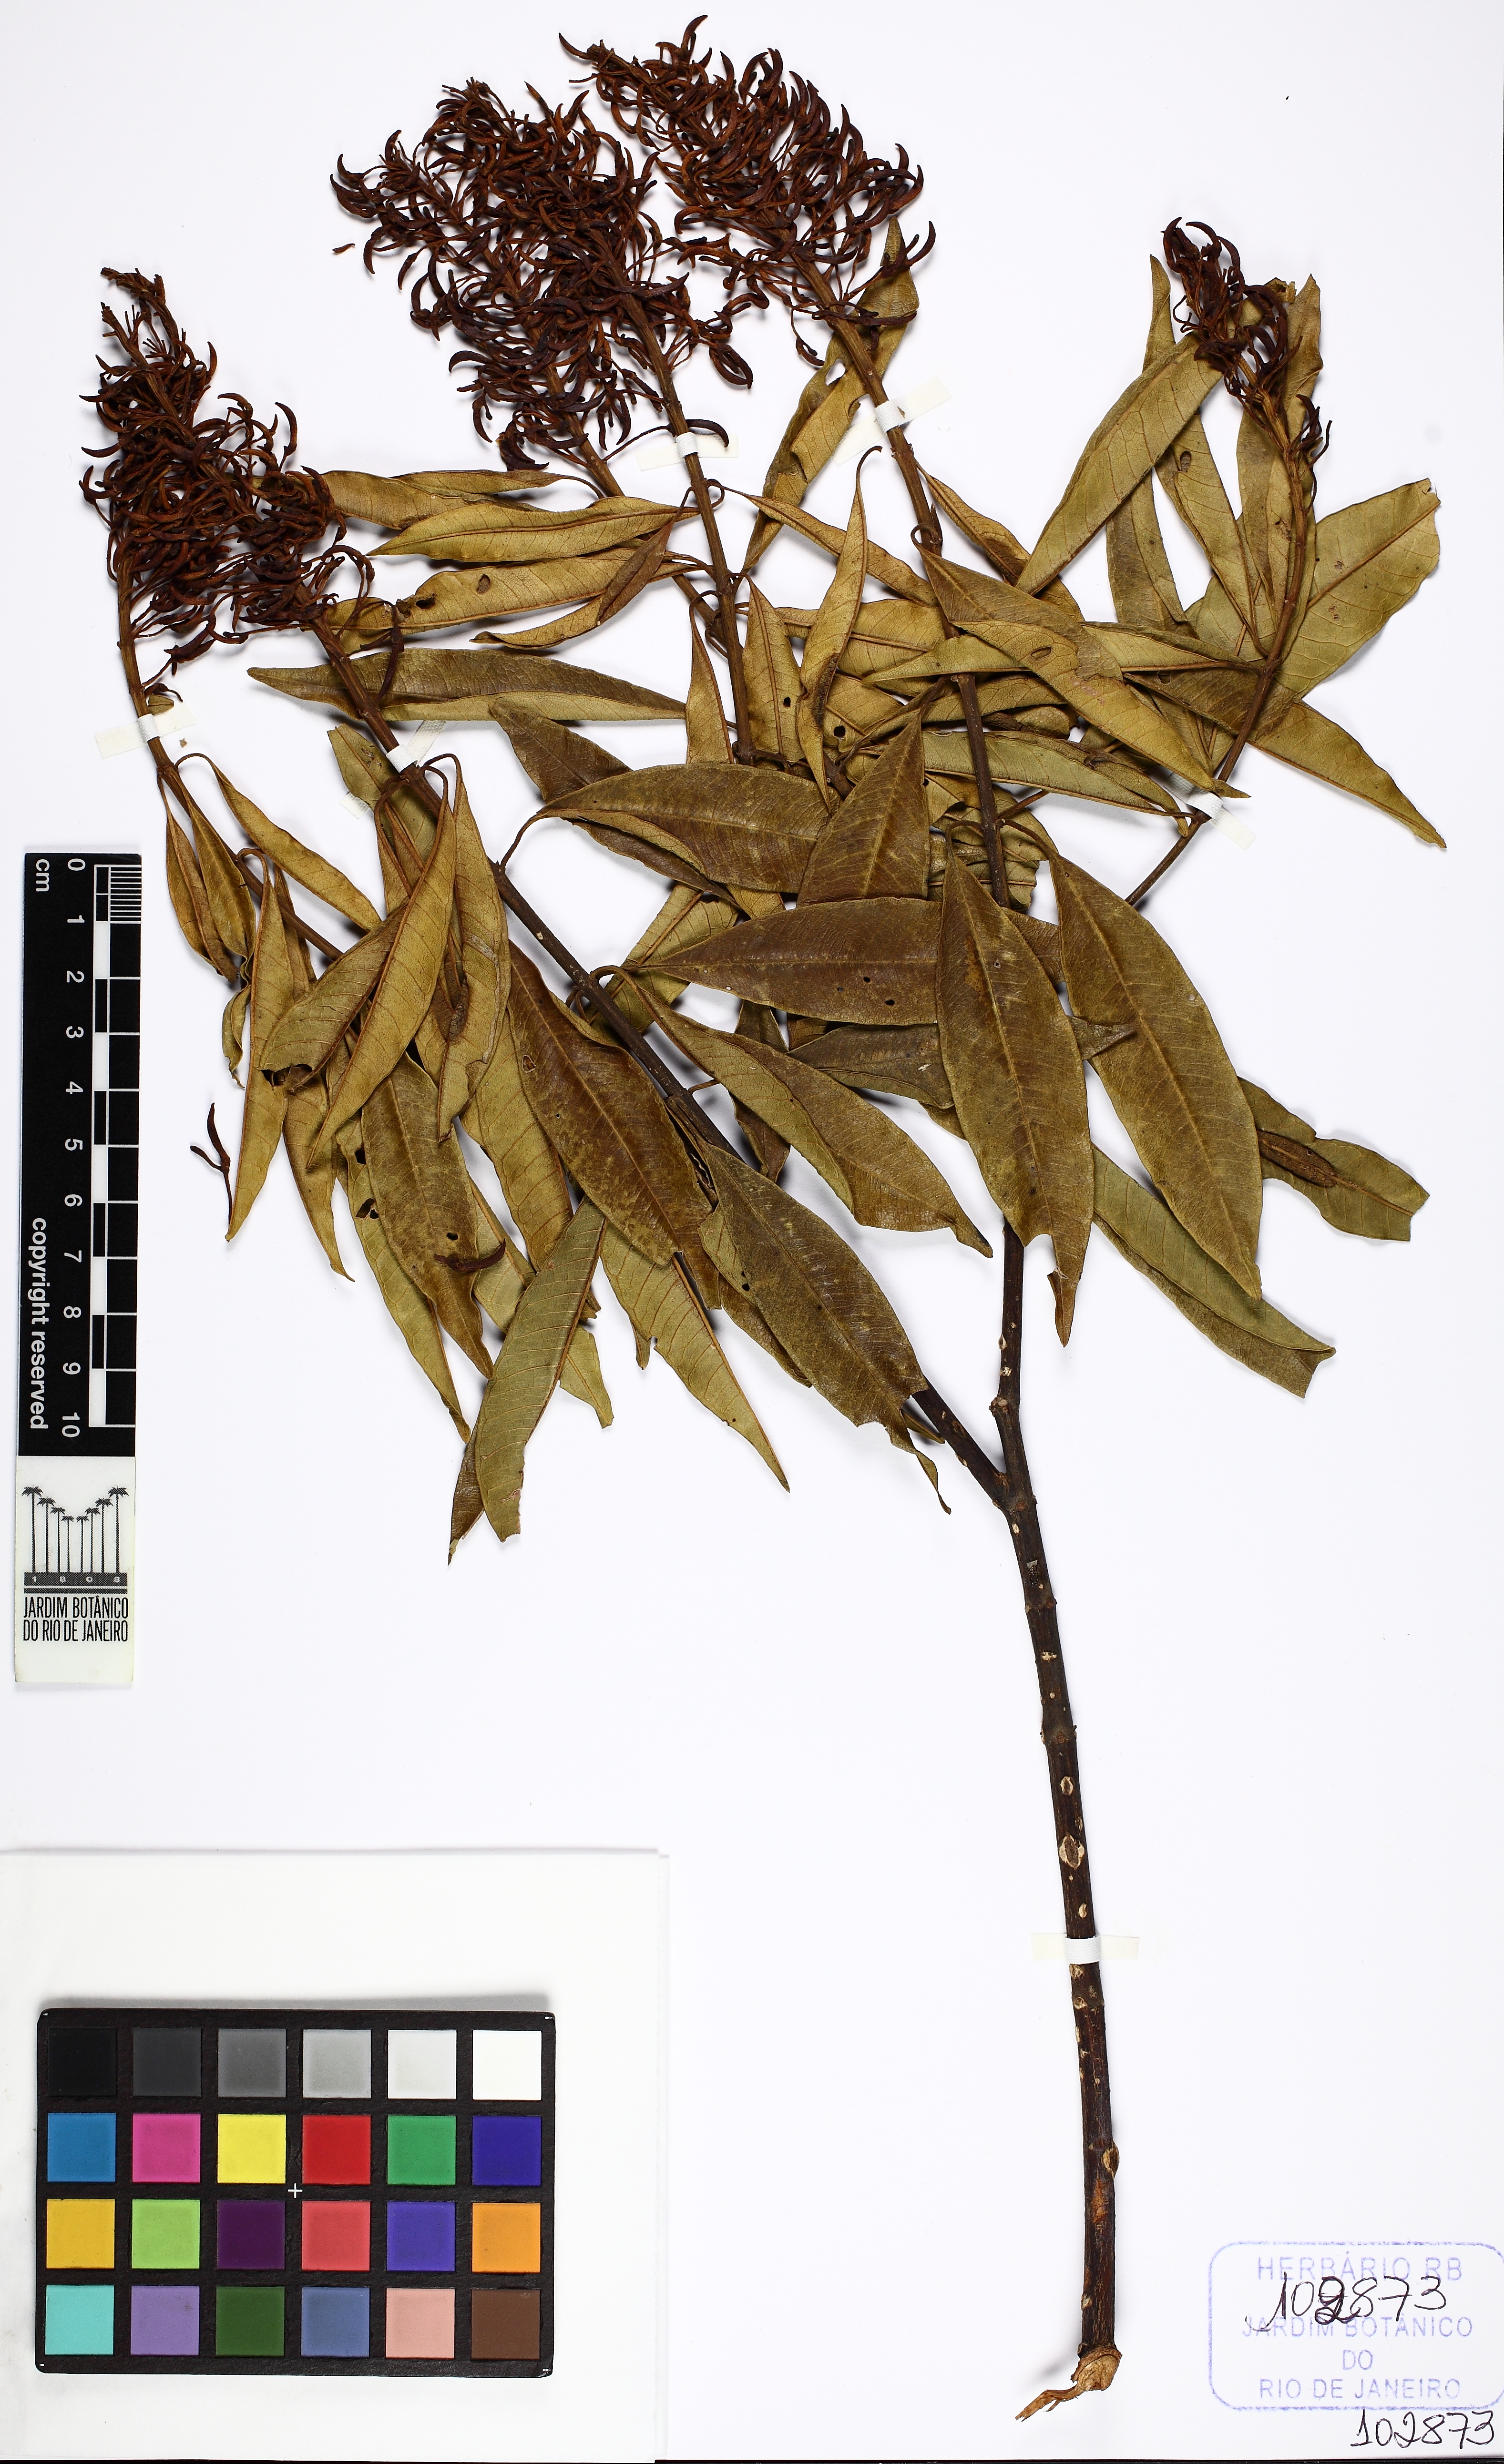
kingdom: Plantae
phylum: Tracheophyta
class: Magnoliopsida
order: Myrtales
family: Vochysiaceae
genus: Vochysia
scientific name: Vochysia schwackeana
